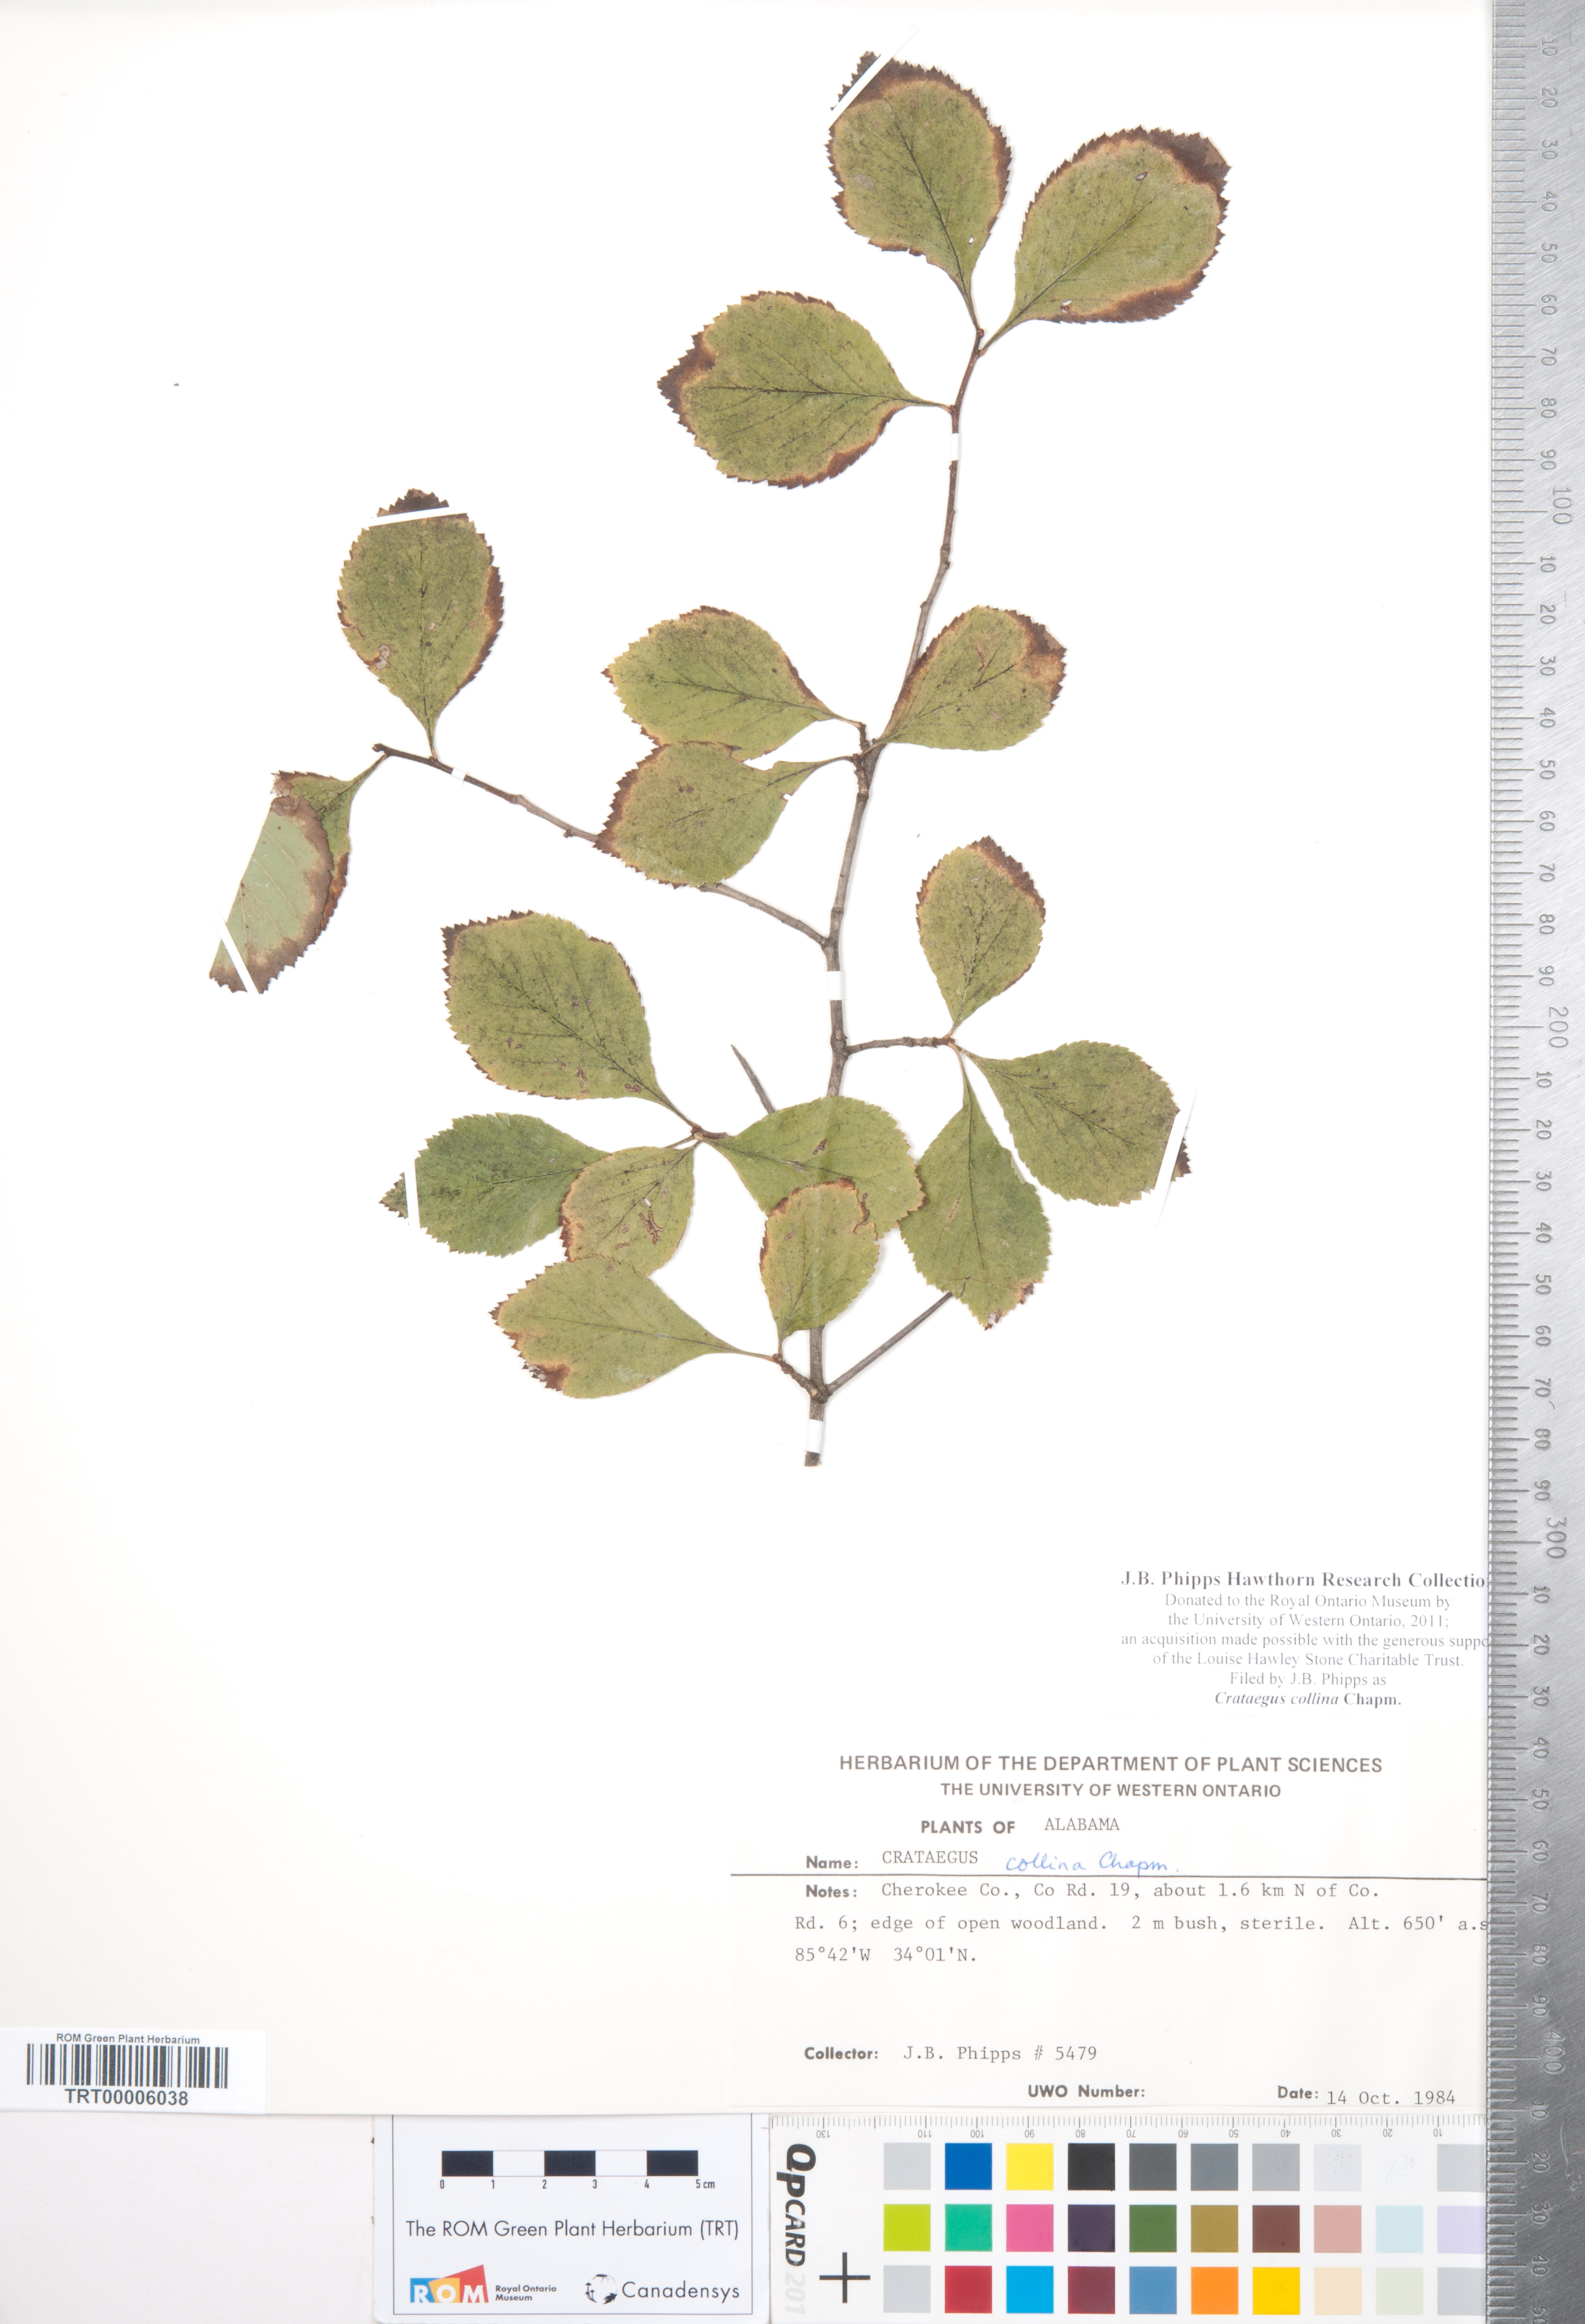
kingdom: Plantae
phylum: Tracheophyta
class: Magnoliopsida
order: Rosales
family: Rosaceae
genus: Crataegus
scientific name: Crataegus collina
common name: Hillside hawthorn
